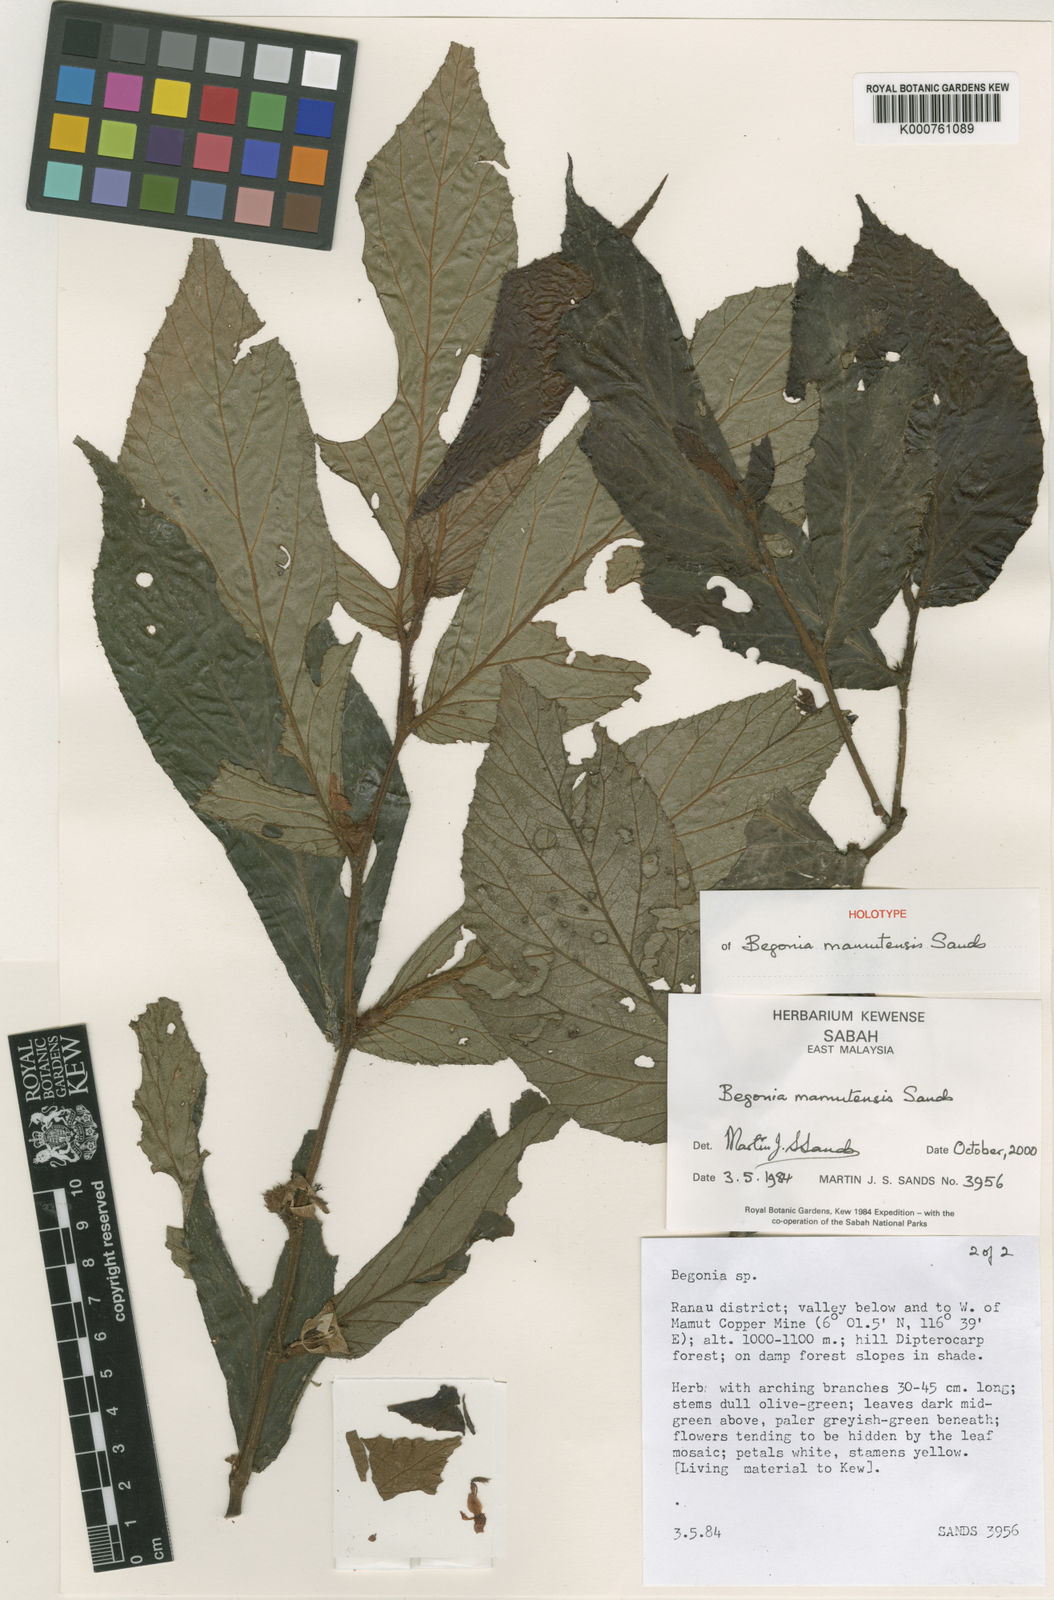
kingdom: Plantae
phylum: Tracheophyta
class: Magnoliopsida
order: Cucurbitales
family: Begoniaceae
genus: Begonia
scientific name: Begonia mamutensis
